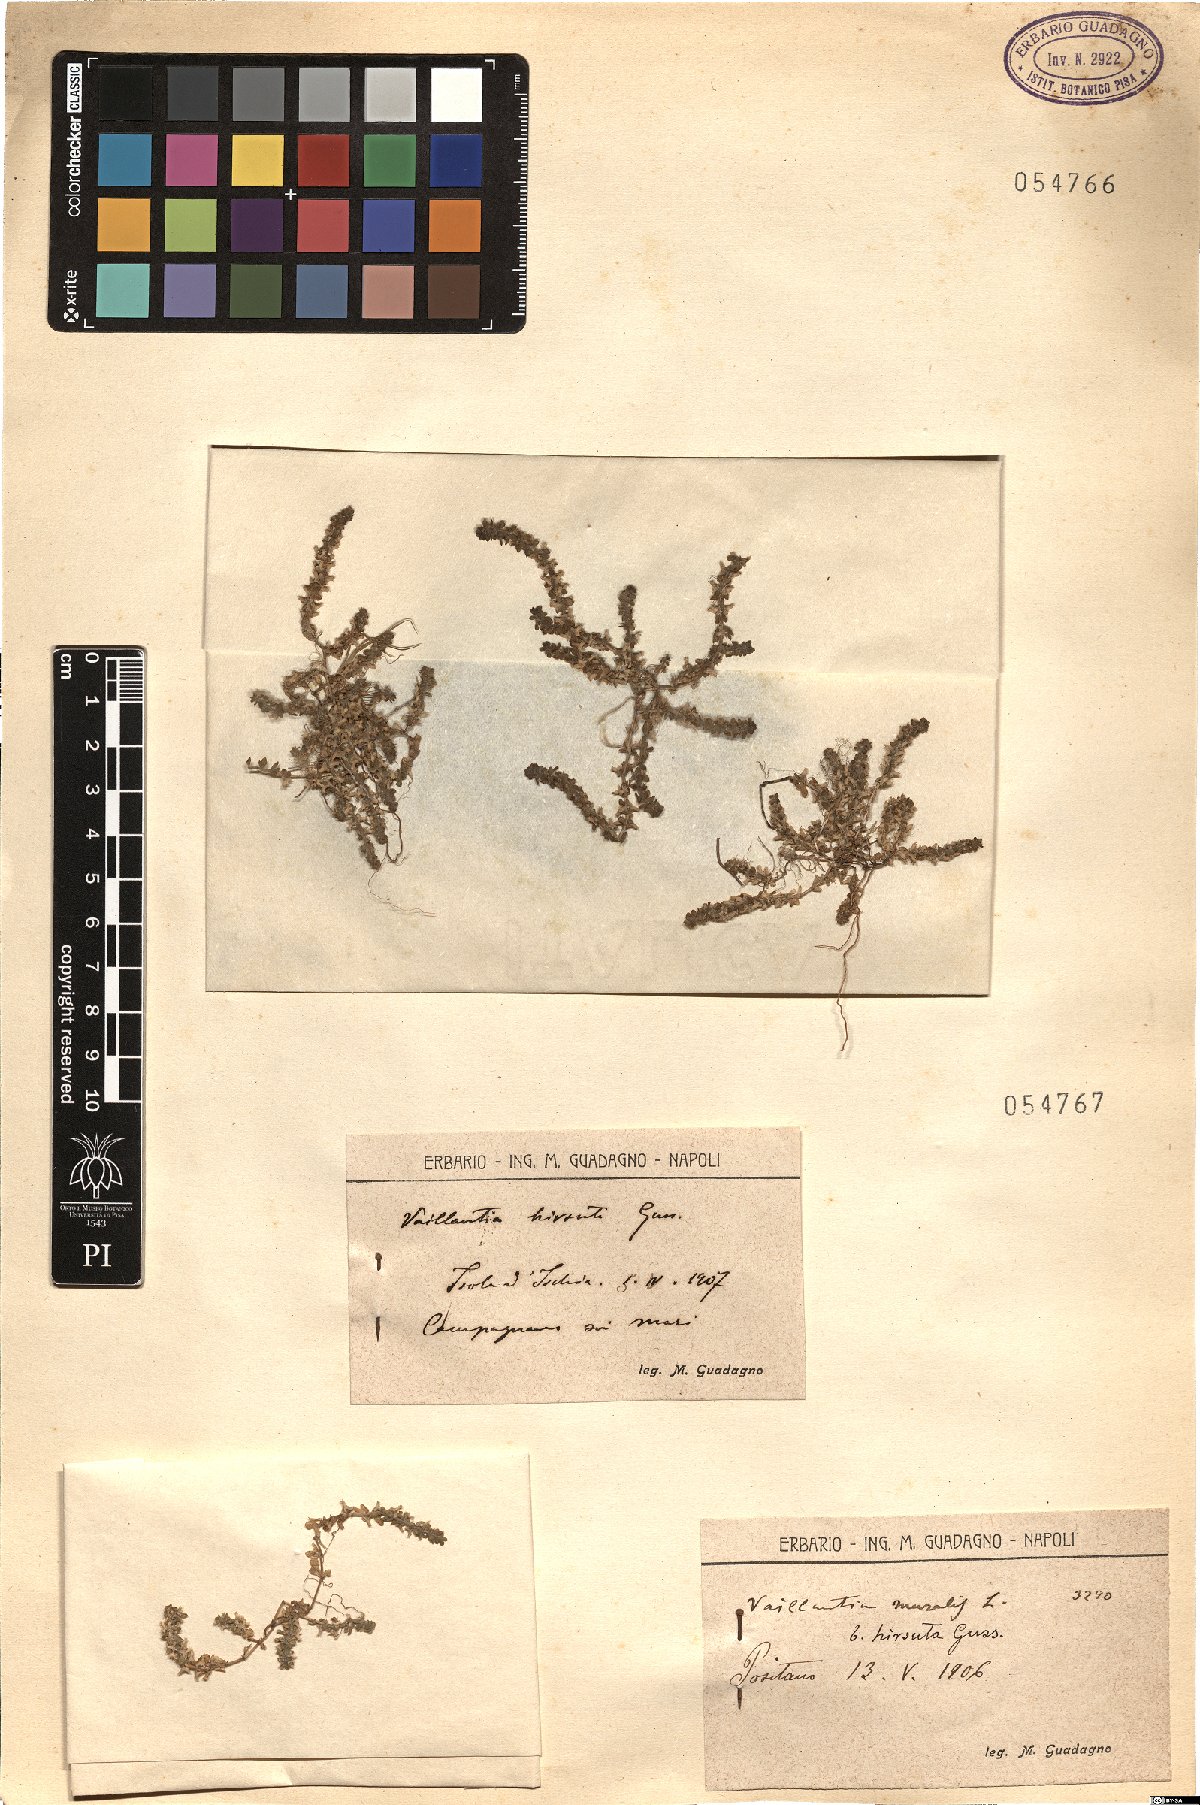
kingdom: Plantae
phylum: Tracheophyta
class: Magnoliopsida
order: Gentianales
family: Rubiaceae
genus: Valantia
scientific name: Valantia muralis
